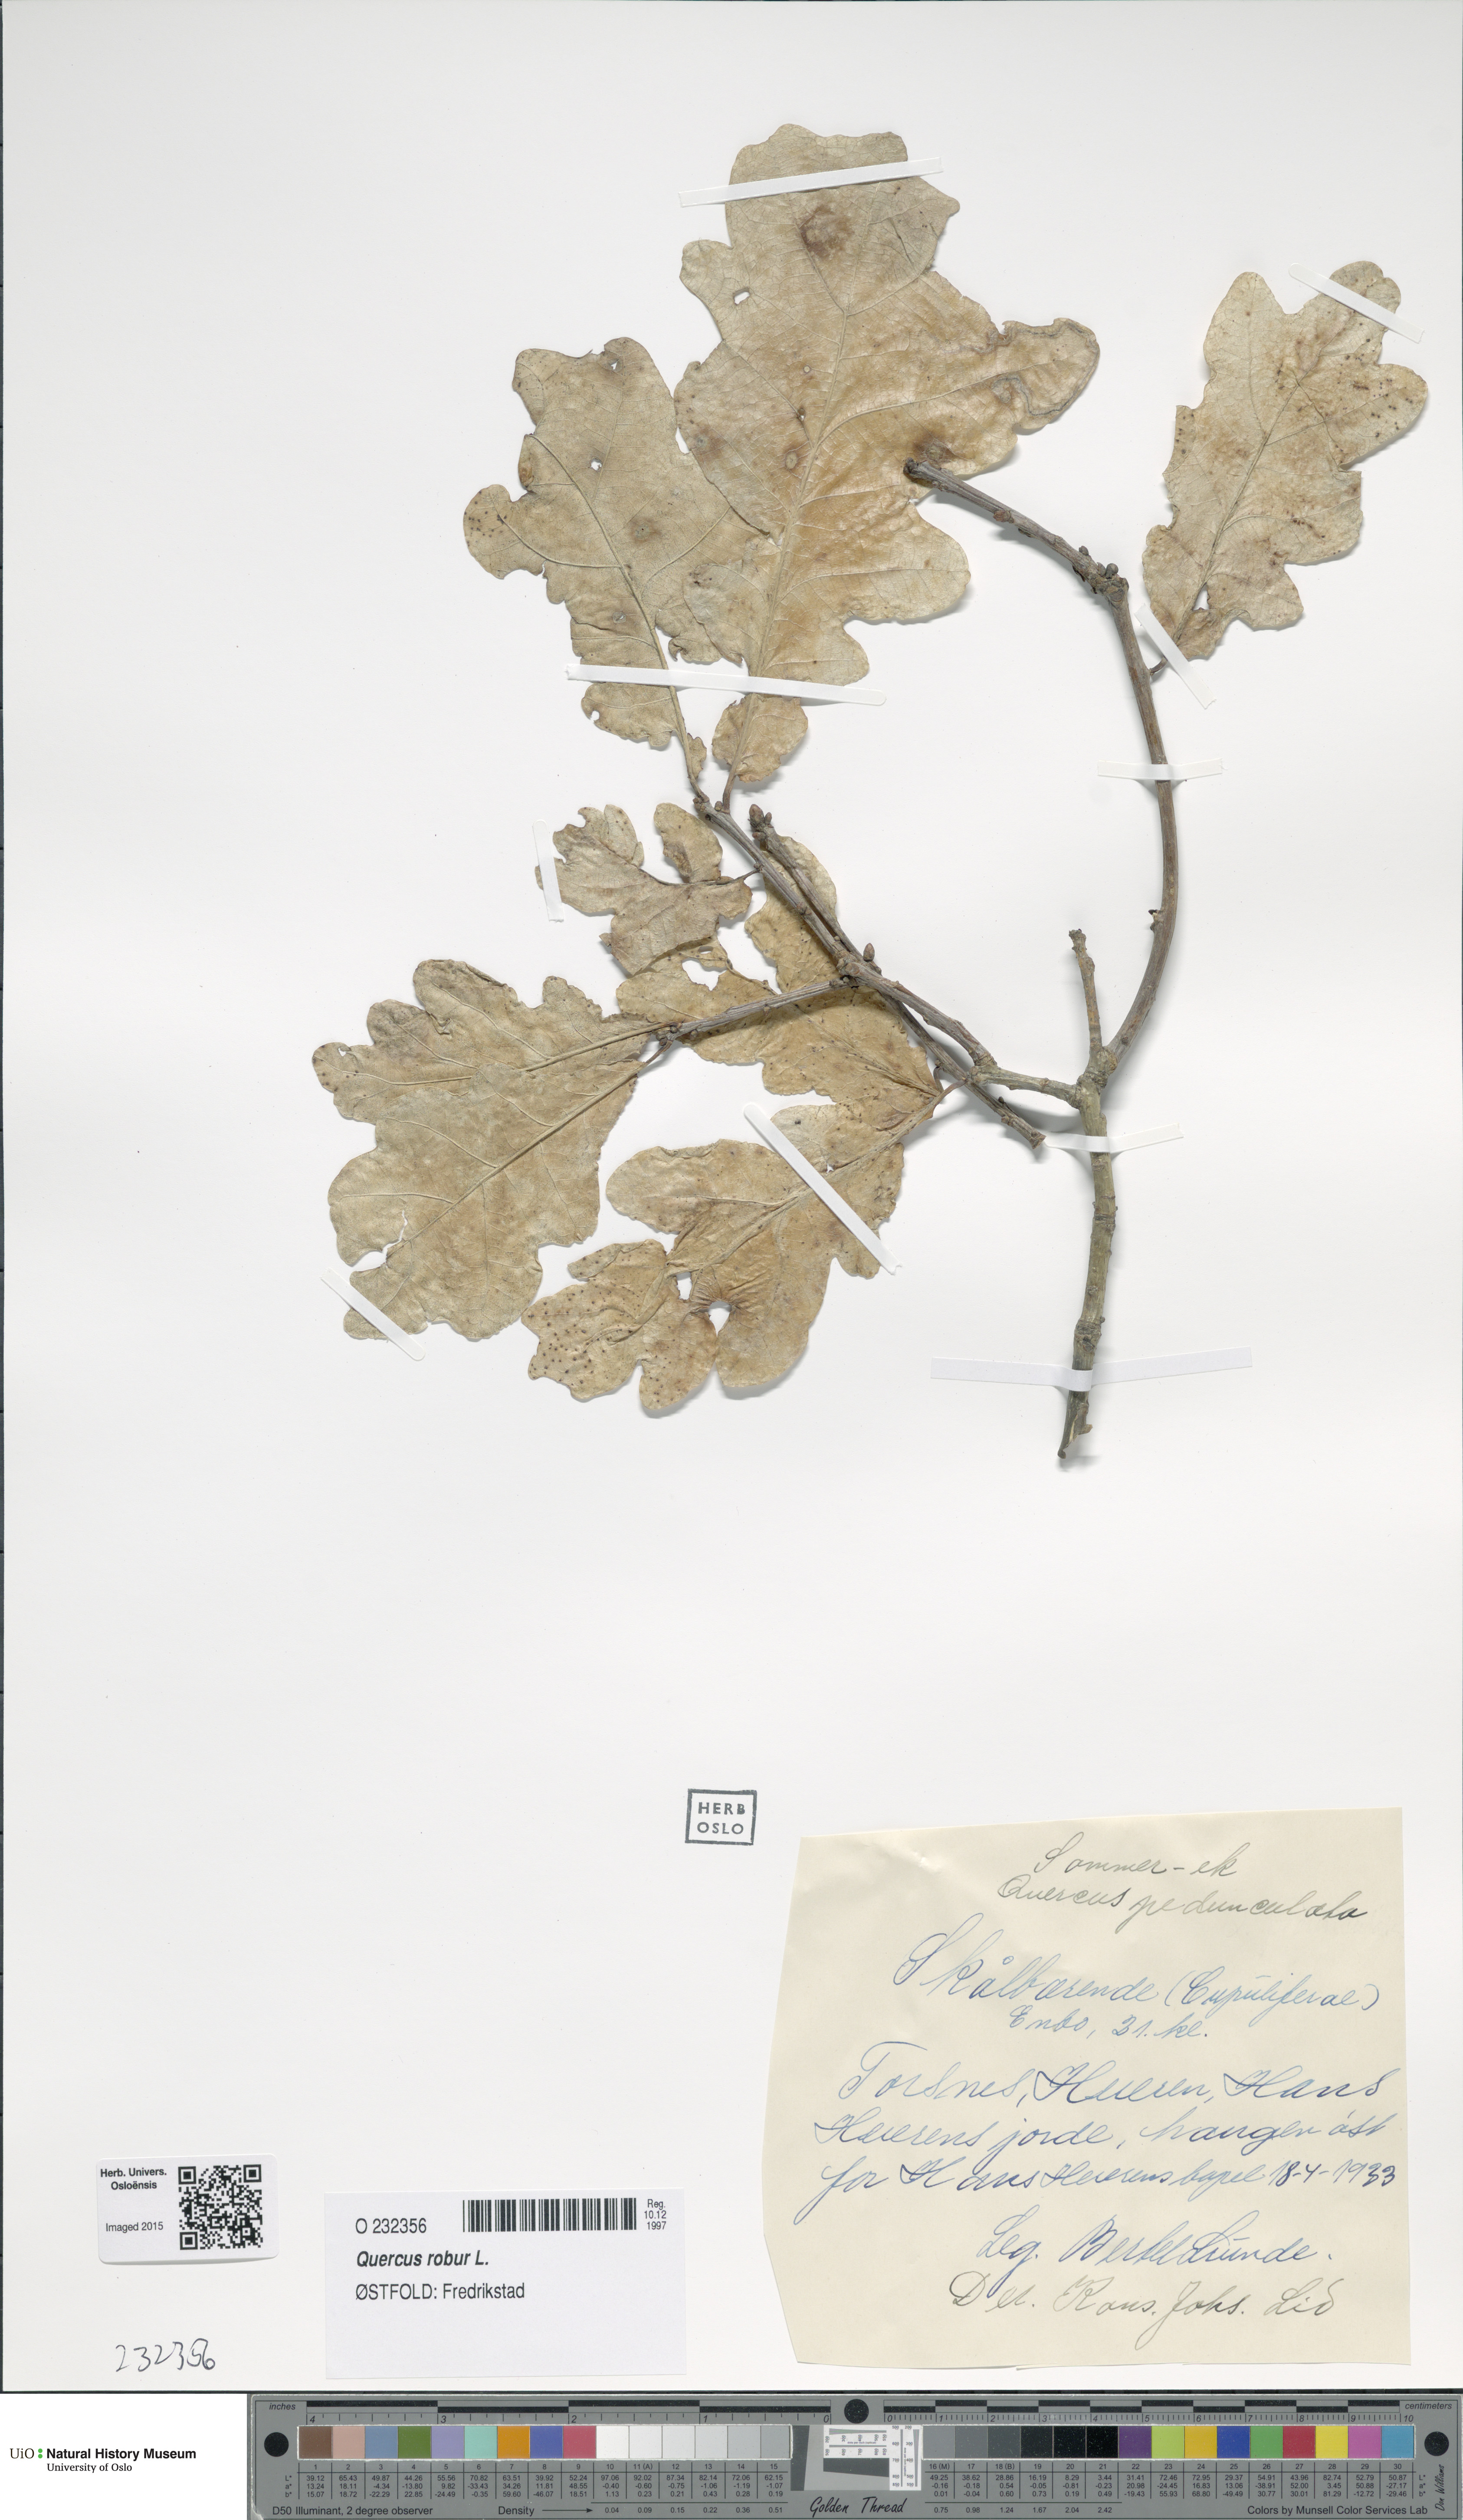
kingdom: Plantae
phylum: Tracheophyta
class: Magnoliopsida
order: Fagales
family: Fagaceae
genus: Quercus
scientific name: Quercus robur
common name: Pedunculate oak
